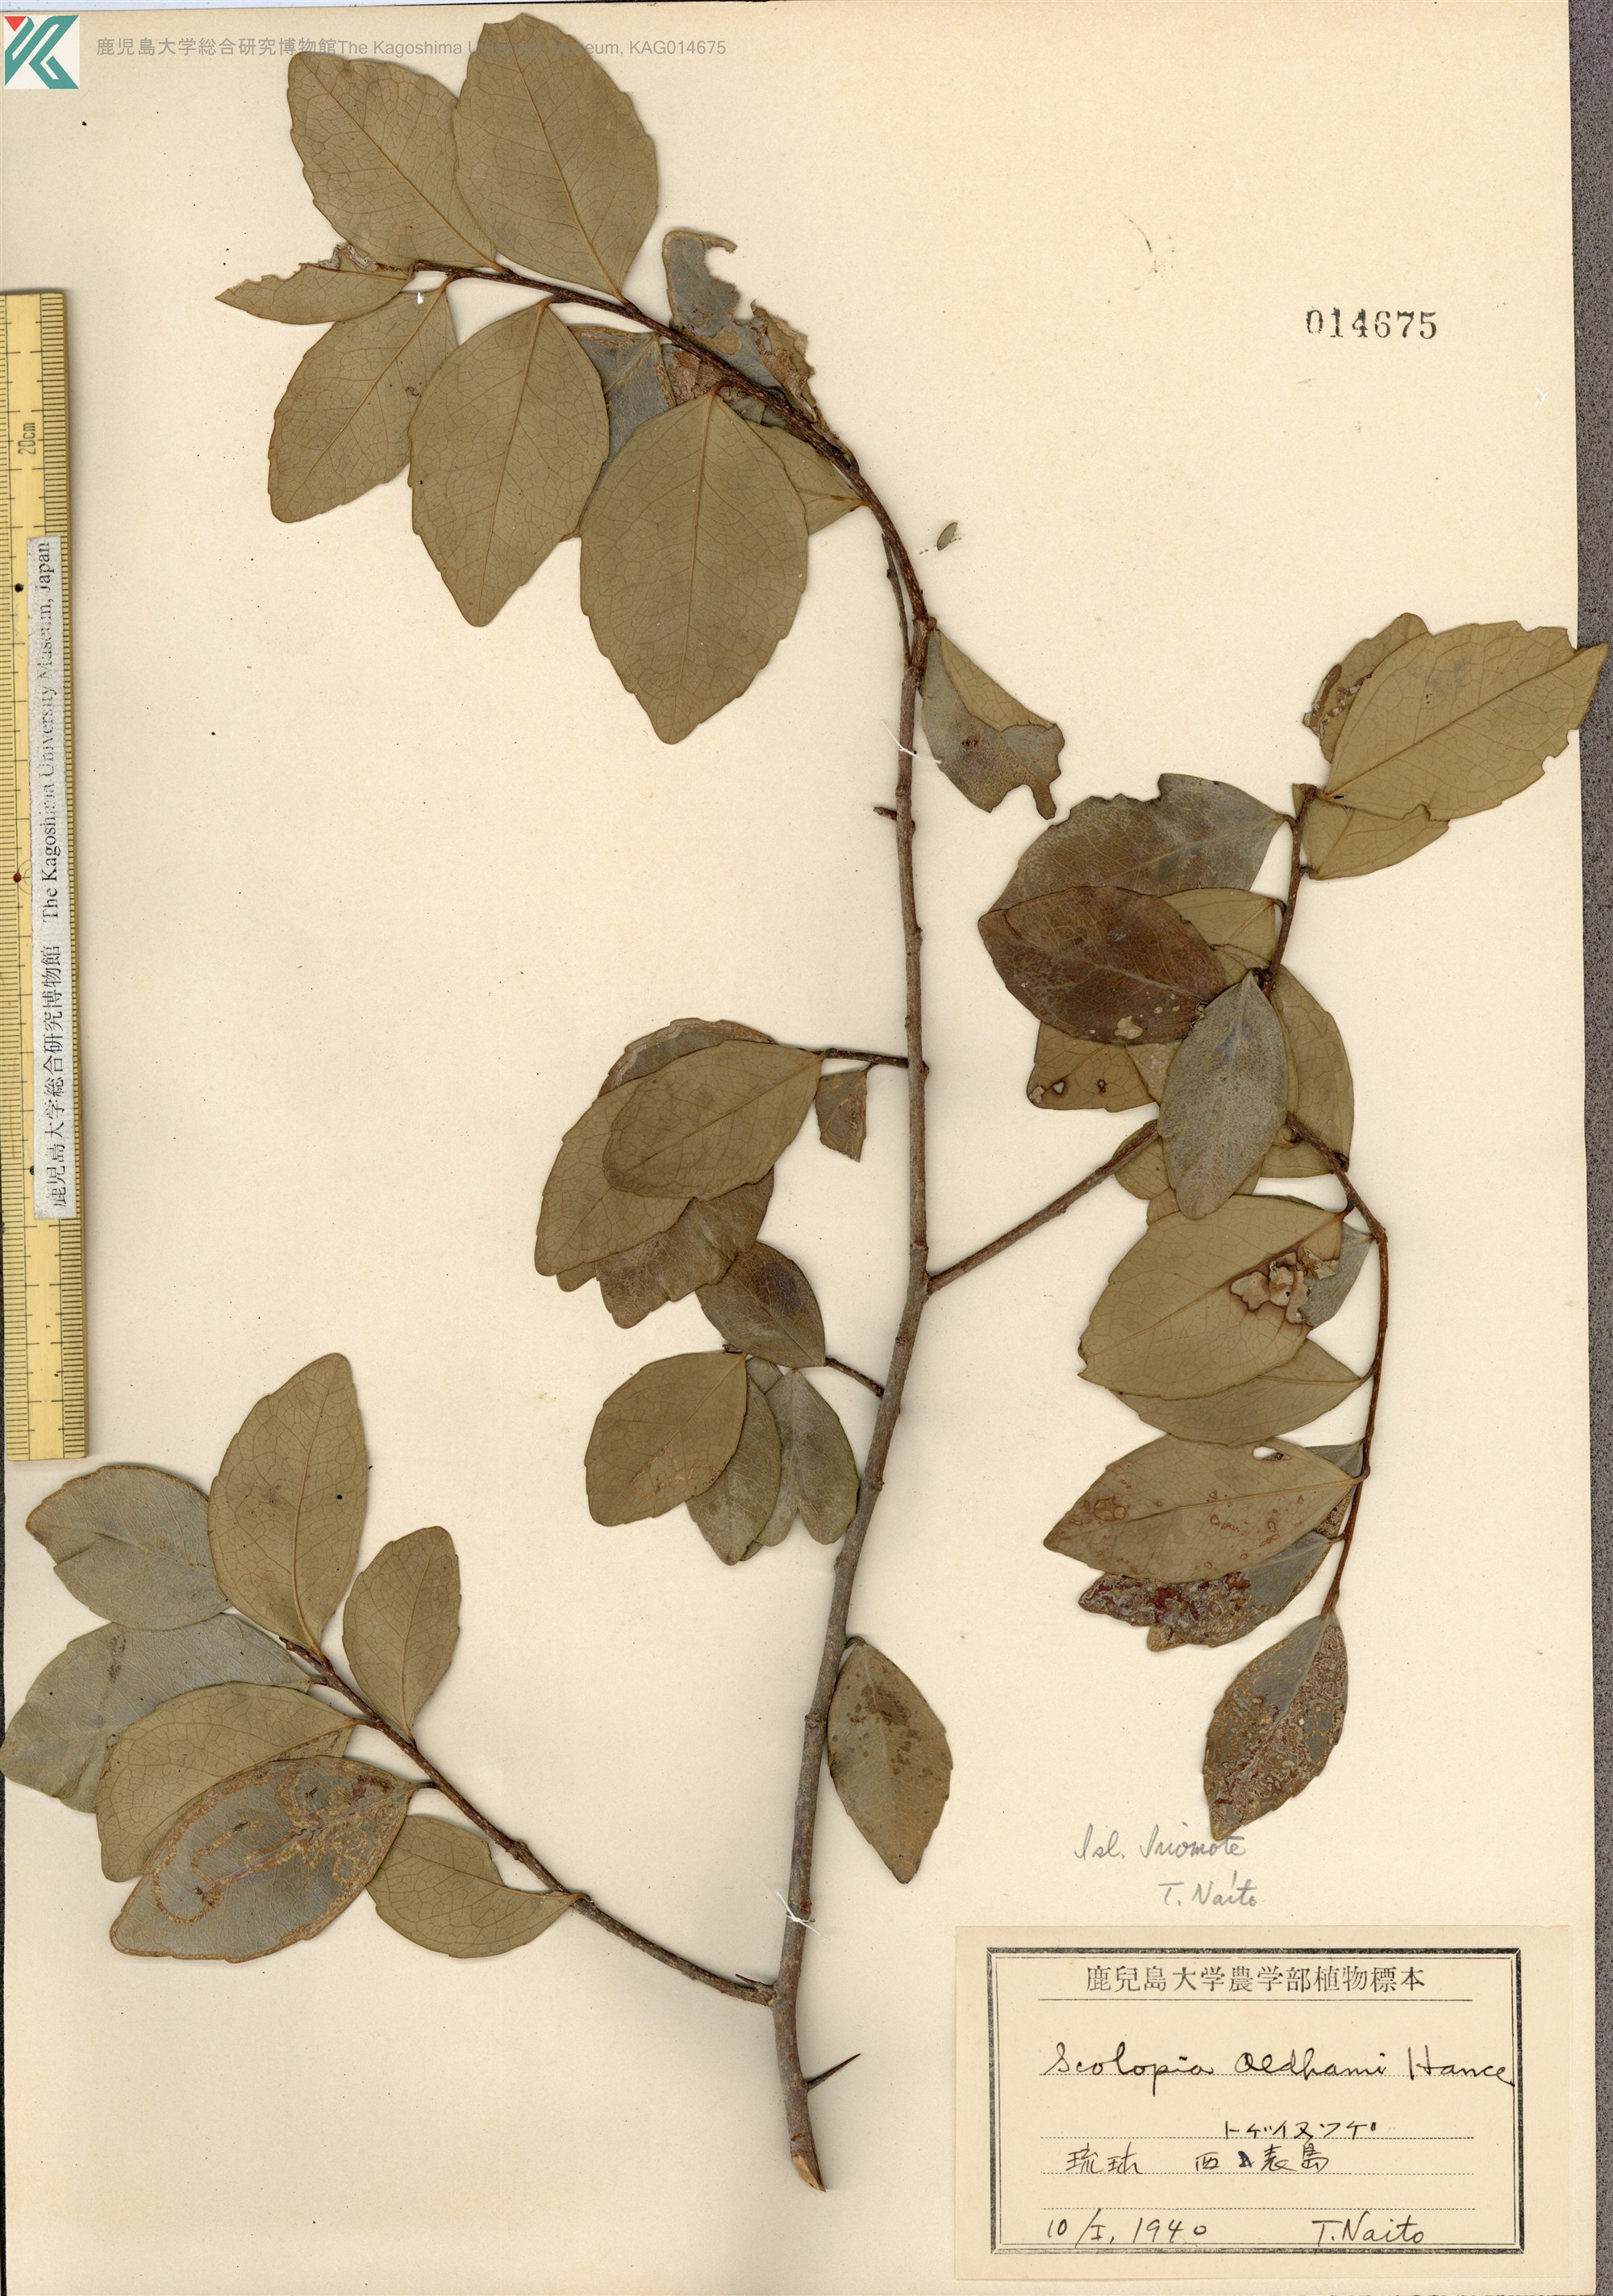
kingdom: Plantae
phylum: Tracheophyta
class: Magnoliopsida
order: Malpighiales
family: Salicaceae
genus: Scolopia
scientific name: Scolopia oldhamii
